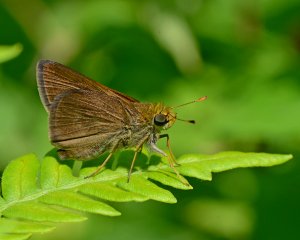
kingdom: Animalia
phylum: Arthropoda
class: Insecta
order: Lepidoptera
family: Hesperiidae
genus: Euphyes
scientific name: Euphyes vestris
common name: Dun Skipper
